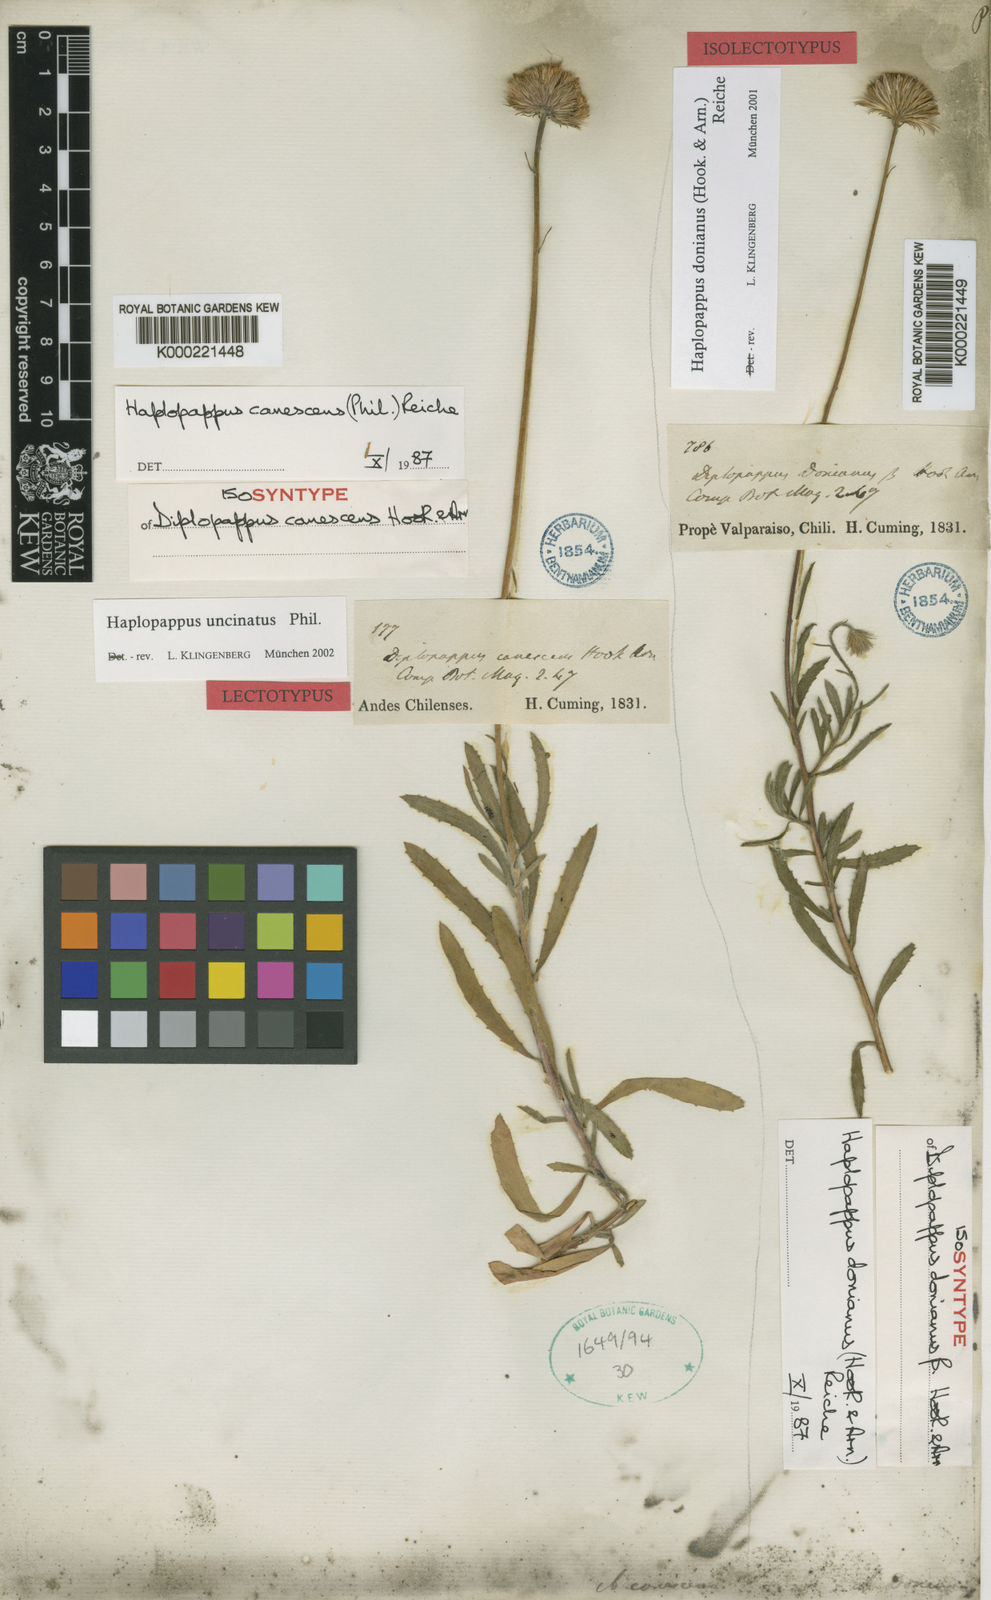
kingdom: Plantae
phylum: Tracheophyta
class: Magnoliopsida
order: Asterales
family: Asteraceae
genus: Haplopappus
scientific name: Haplopappus uncinatus
